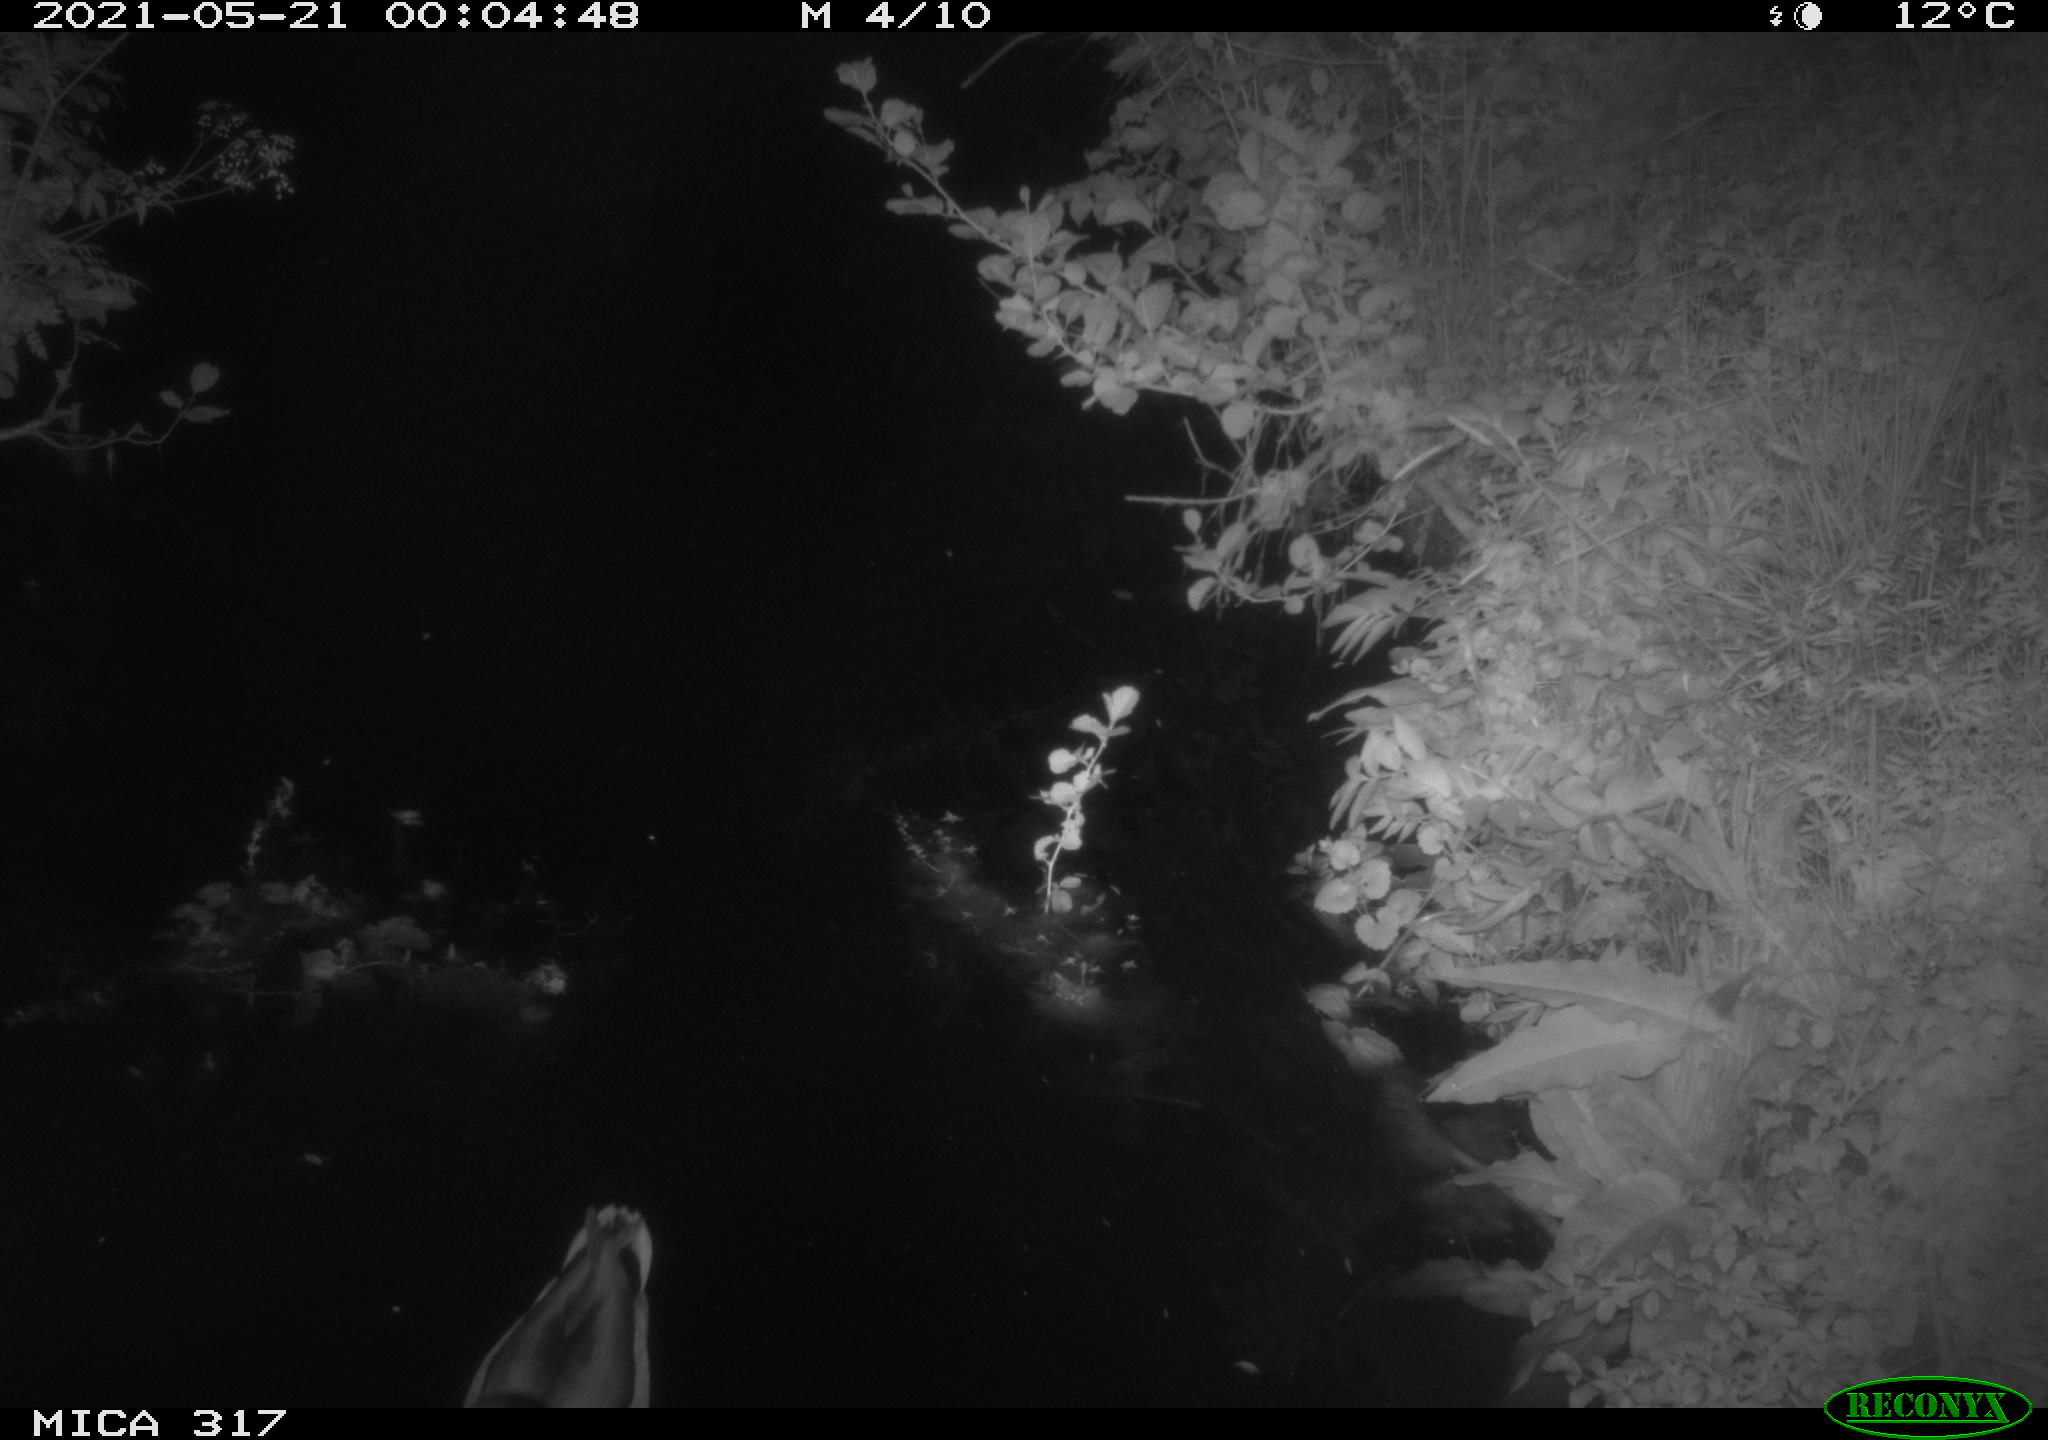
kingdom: Animalia
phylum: Chordata
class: Aves
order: Anseriformes
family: Anatidae
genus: Anas
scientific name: Anas
